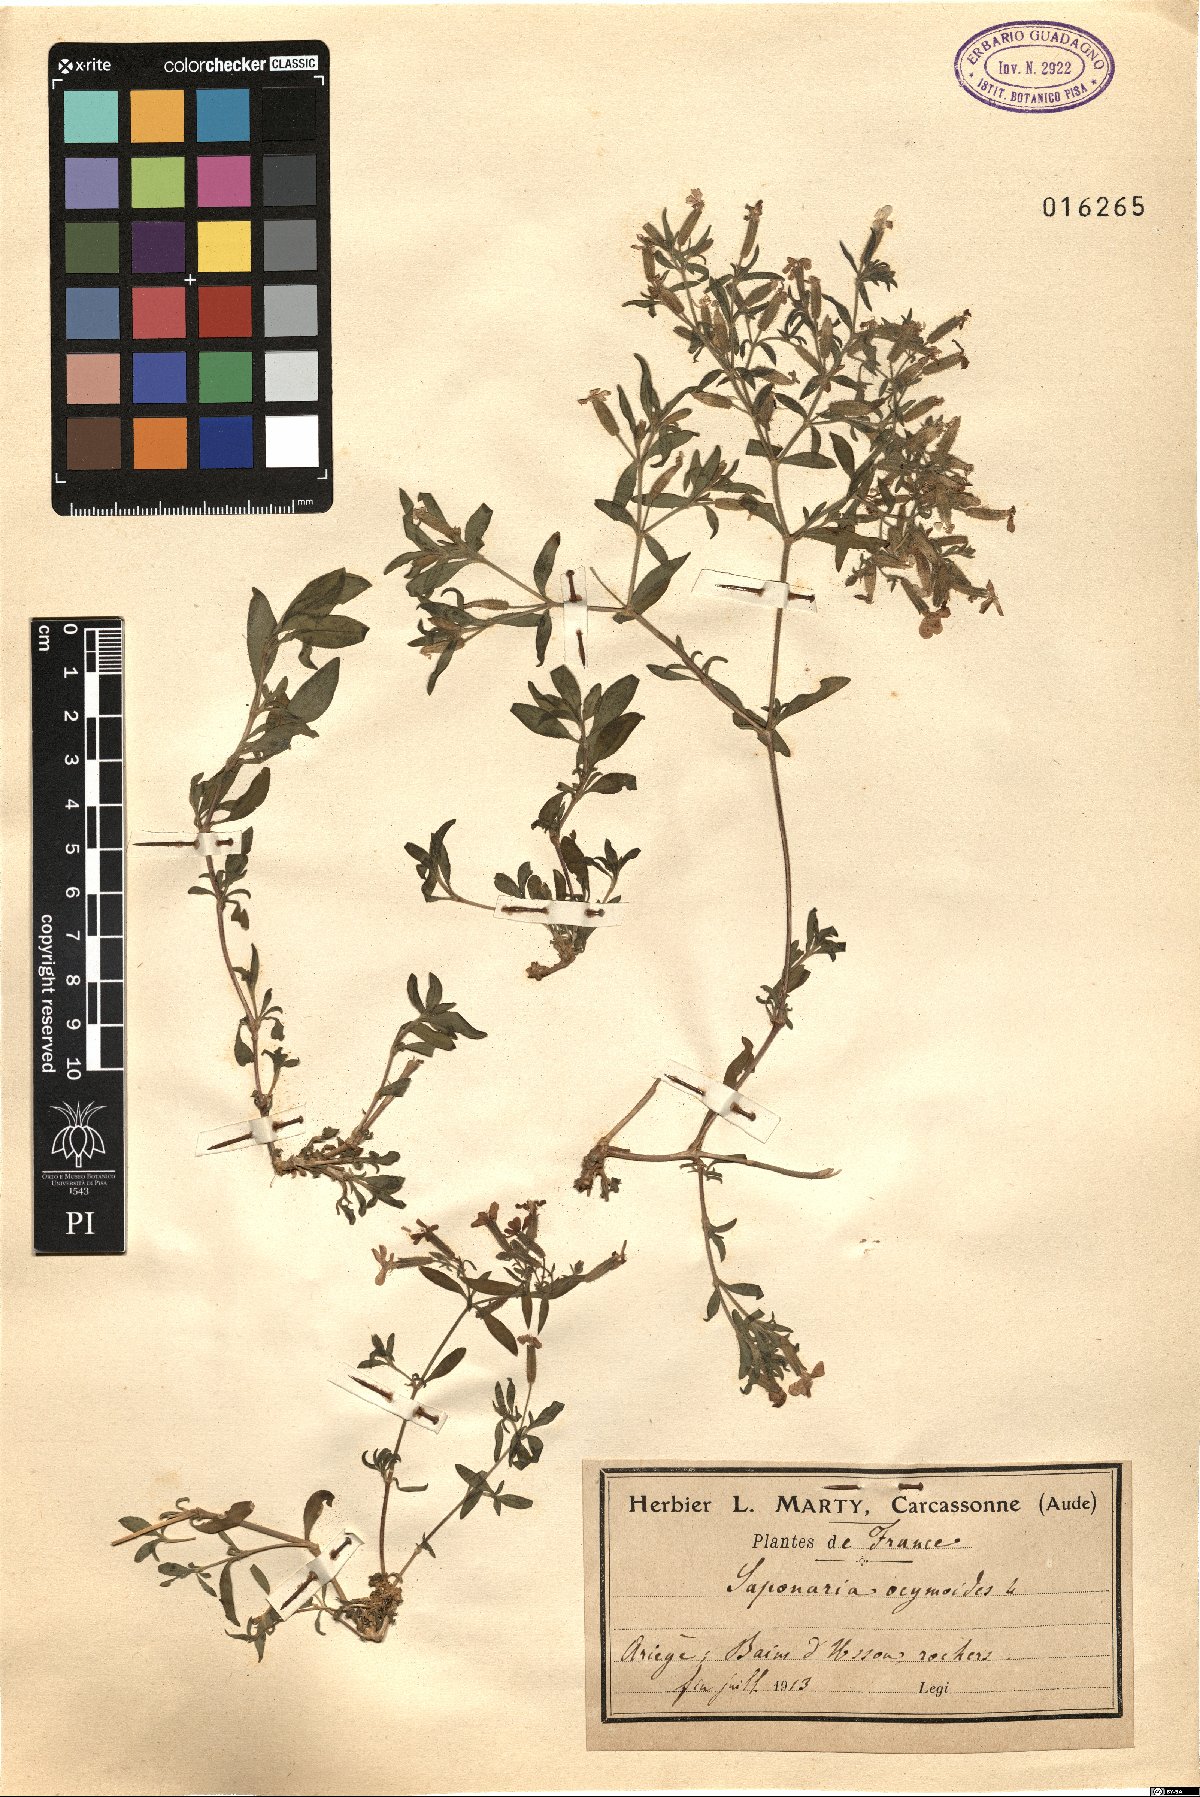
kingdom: Plantae
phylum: Tracheophyta
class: Magnoliopsida
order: Caryophyllales
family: Caryophyllaceae
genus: Saponaria
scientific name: Saponaria ocymoides
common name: Rock soapwort
